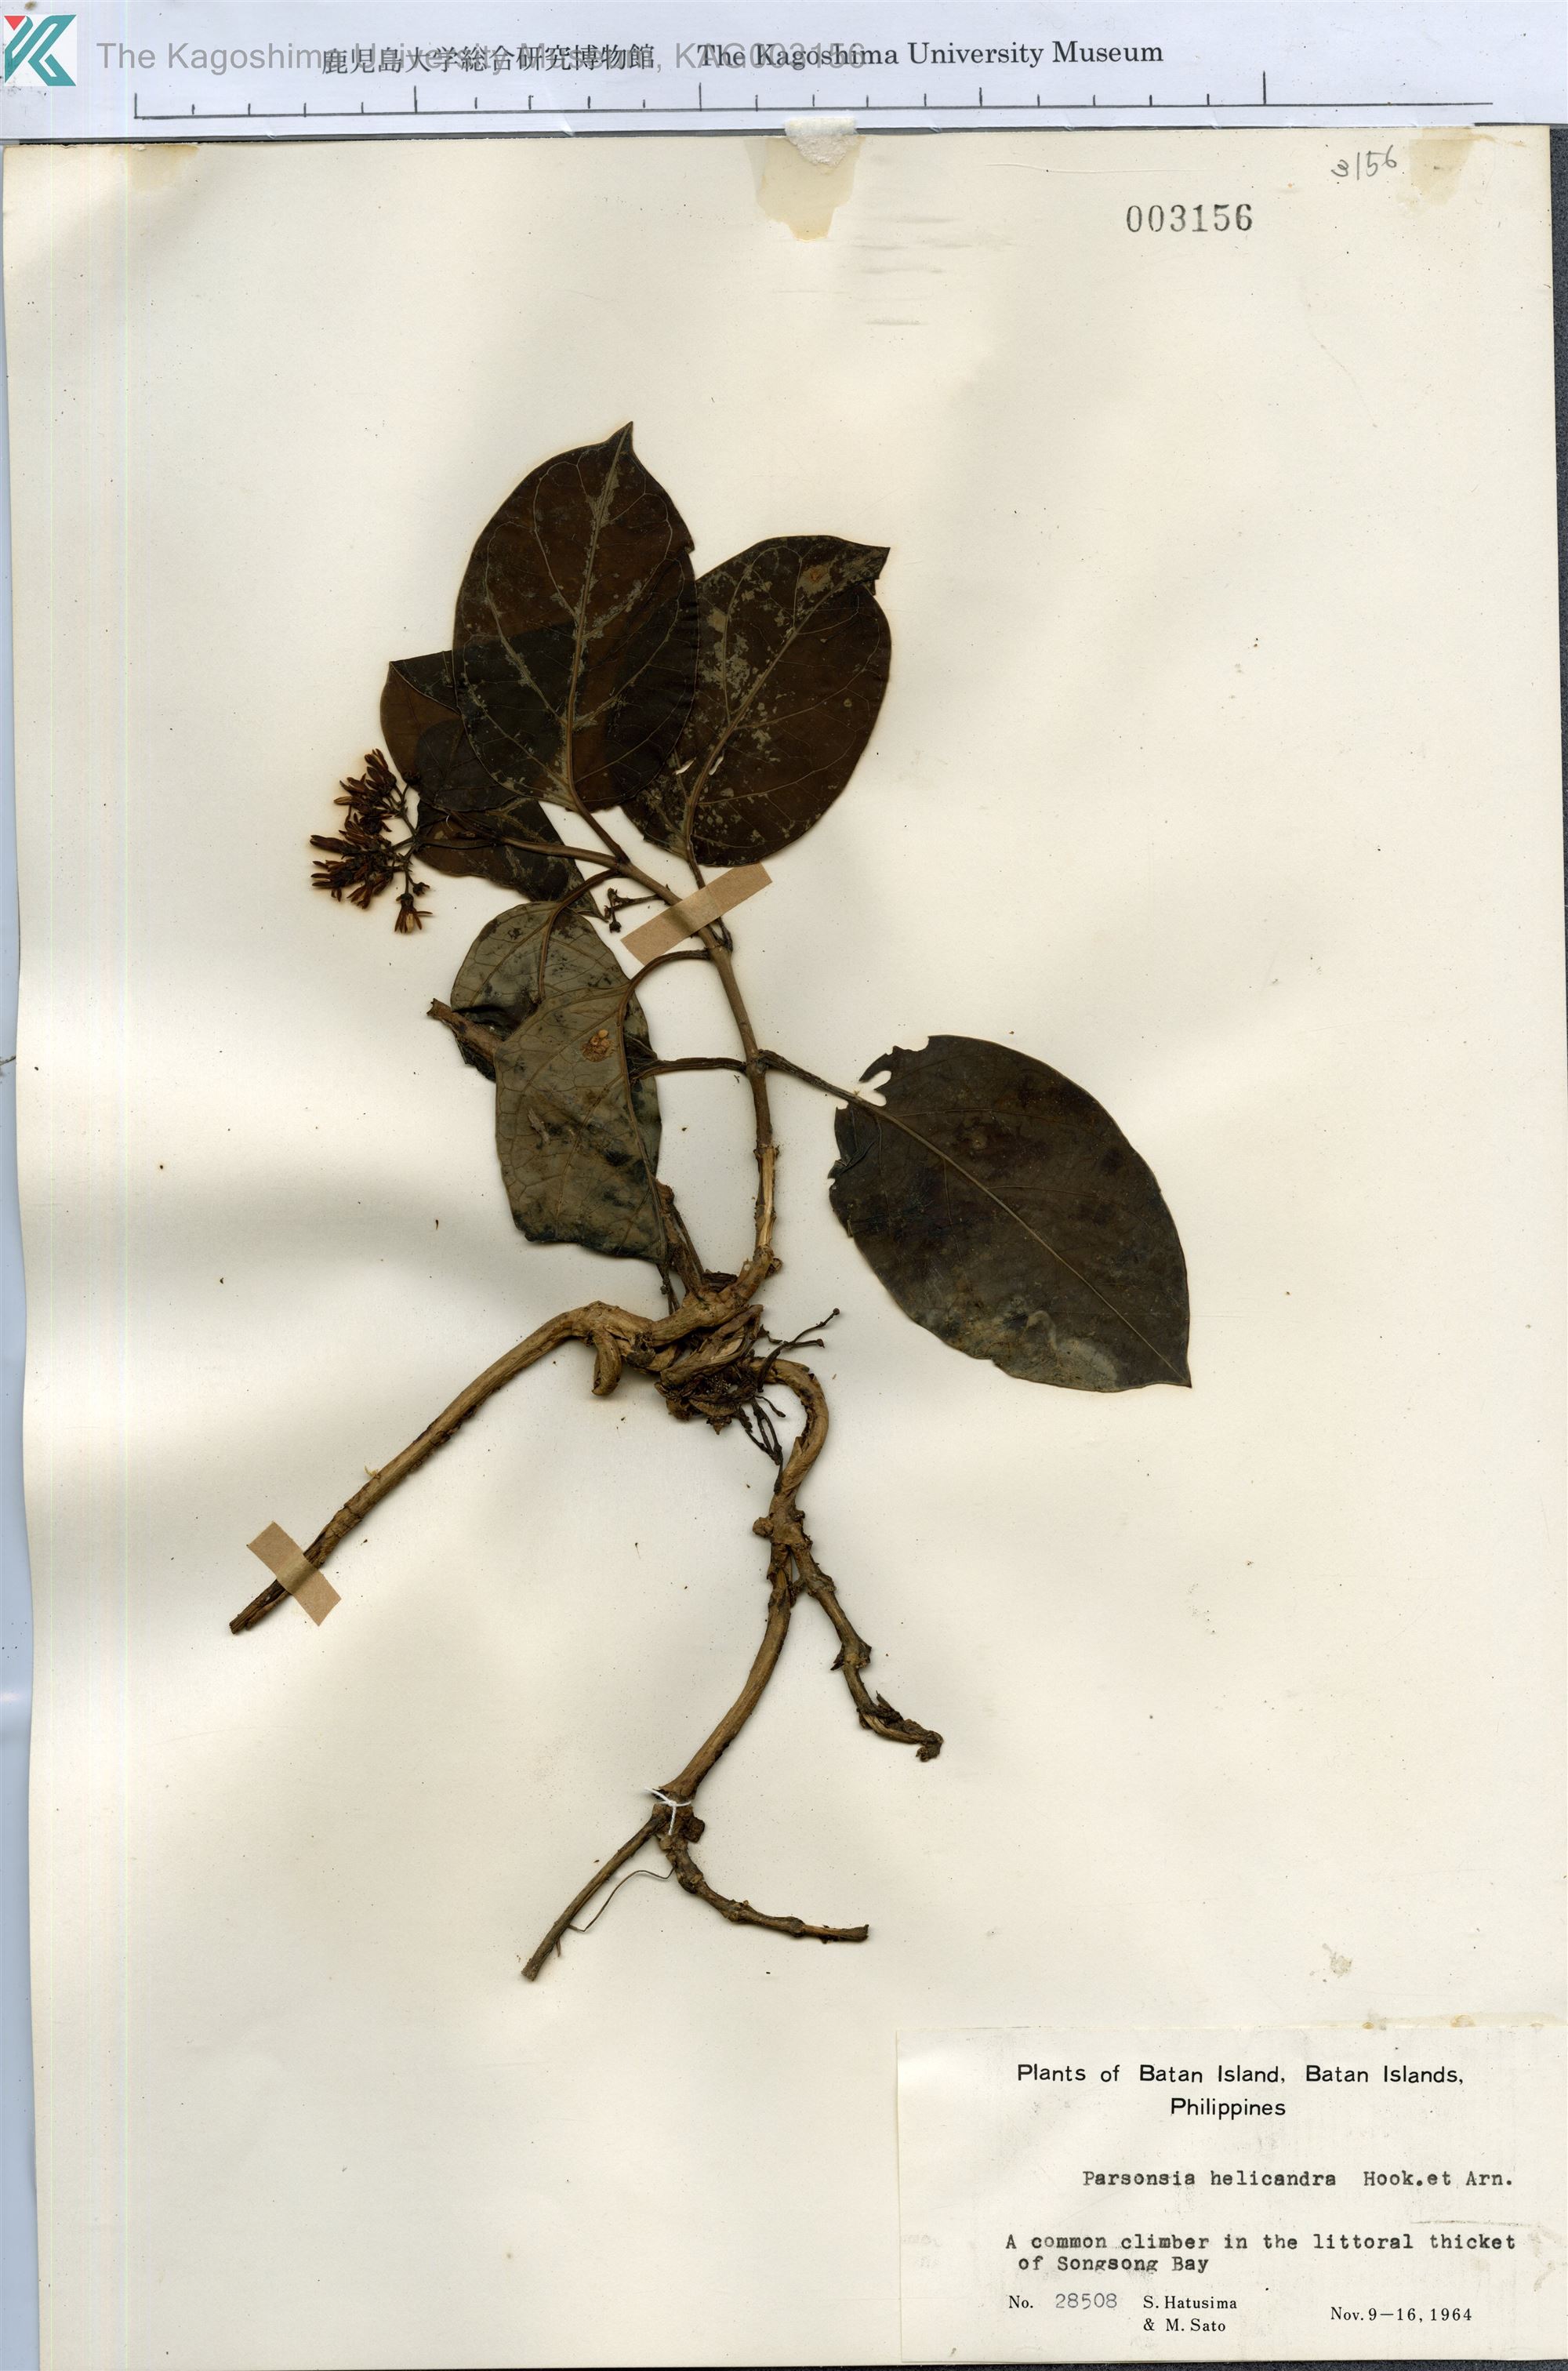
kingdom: Plantae
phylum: Tracheophyta
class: Magnoliopsida
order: Gentianales
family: Apocynaceae
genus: Parsonsia
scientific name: Parsonsia alboflavescens
